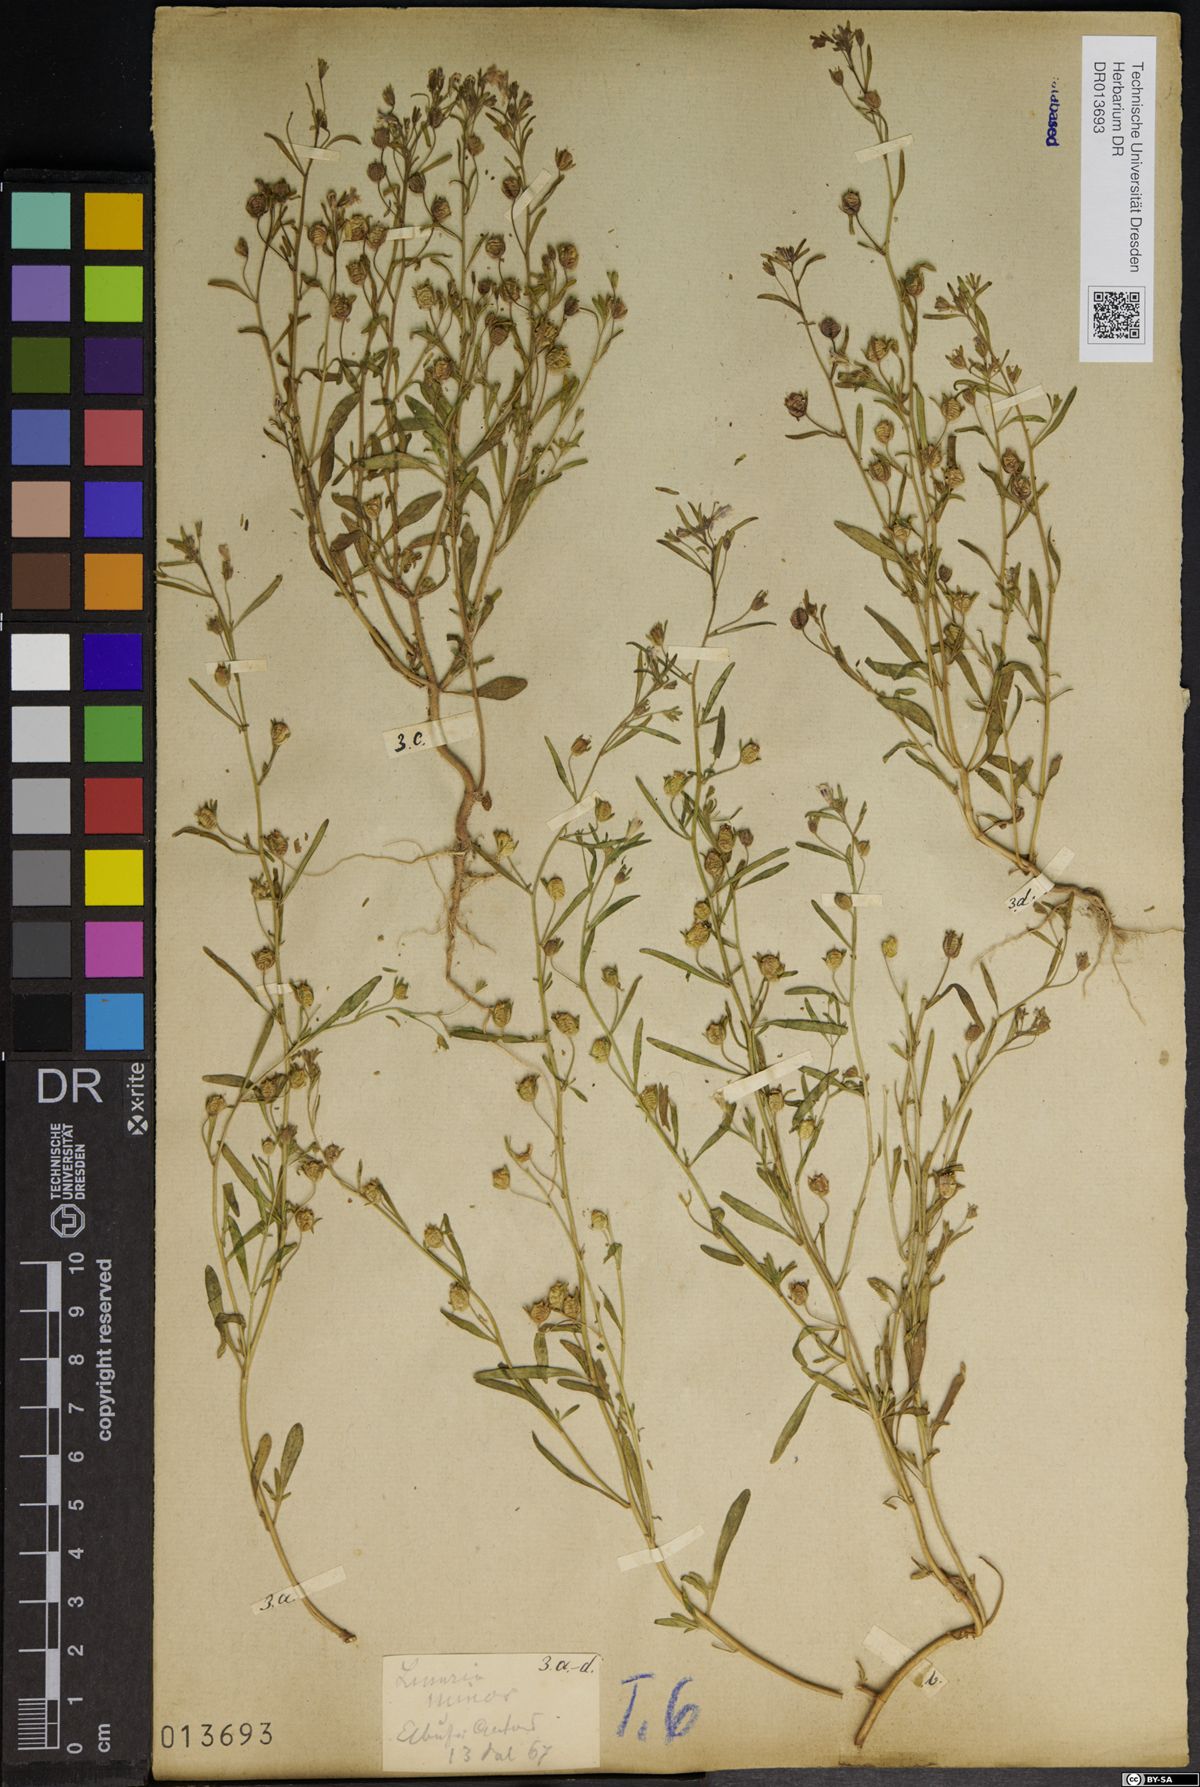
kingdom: Plantae
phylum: Tracheophyta
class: Magnoliopsida
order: Lamiales
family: Plantaginaceae
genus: Chaenorhinum
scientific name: Chaenorhinum minus
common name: Dwarf snapdragon
